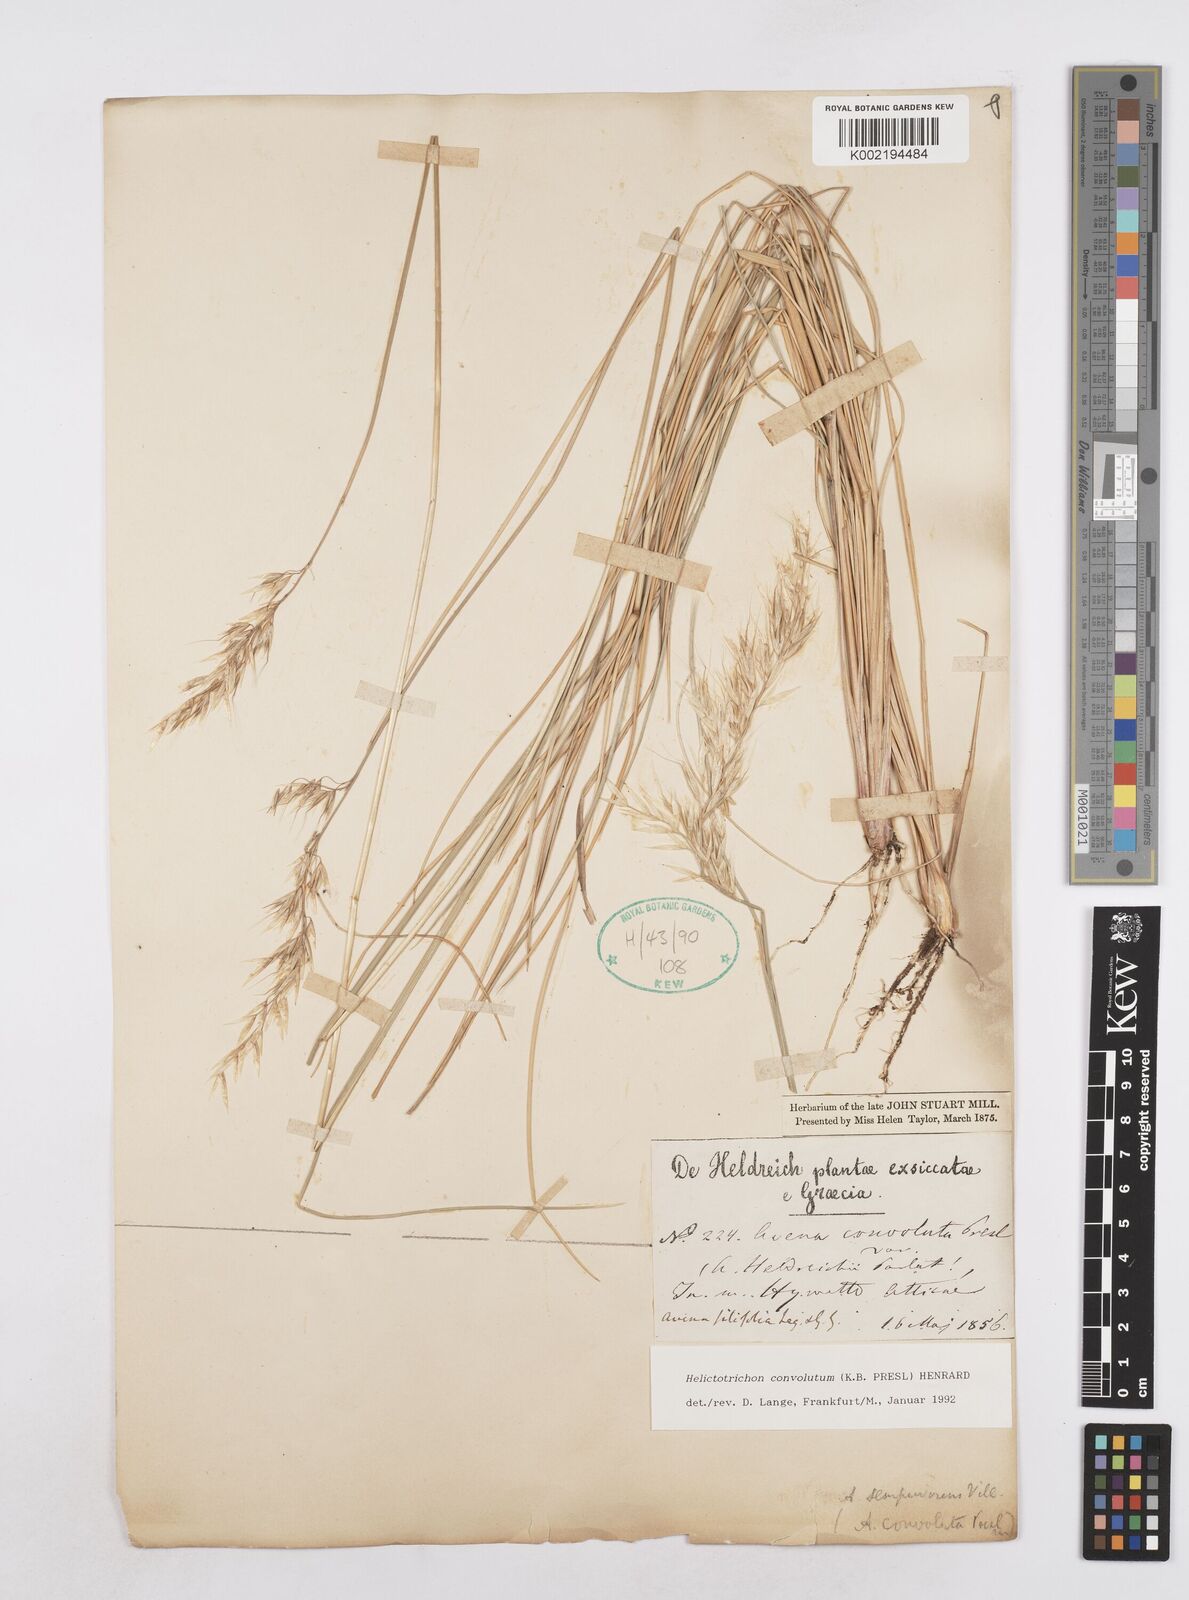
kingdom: Plantae
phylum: Tracheophyta
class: Liliopsida
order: Poales
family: Poaceae
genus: Helictotrichon
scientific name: Helictotrichon convolutum
